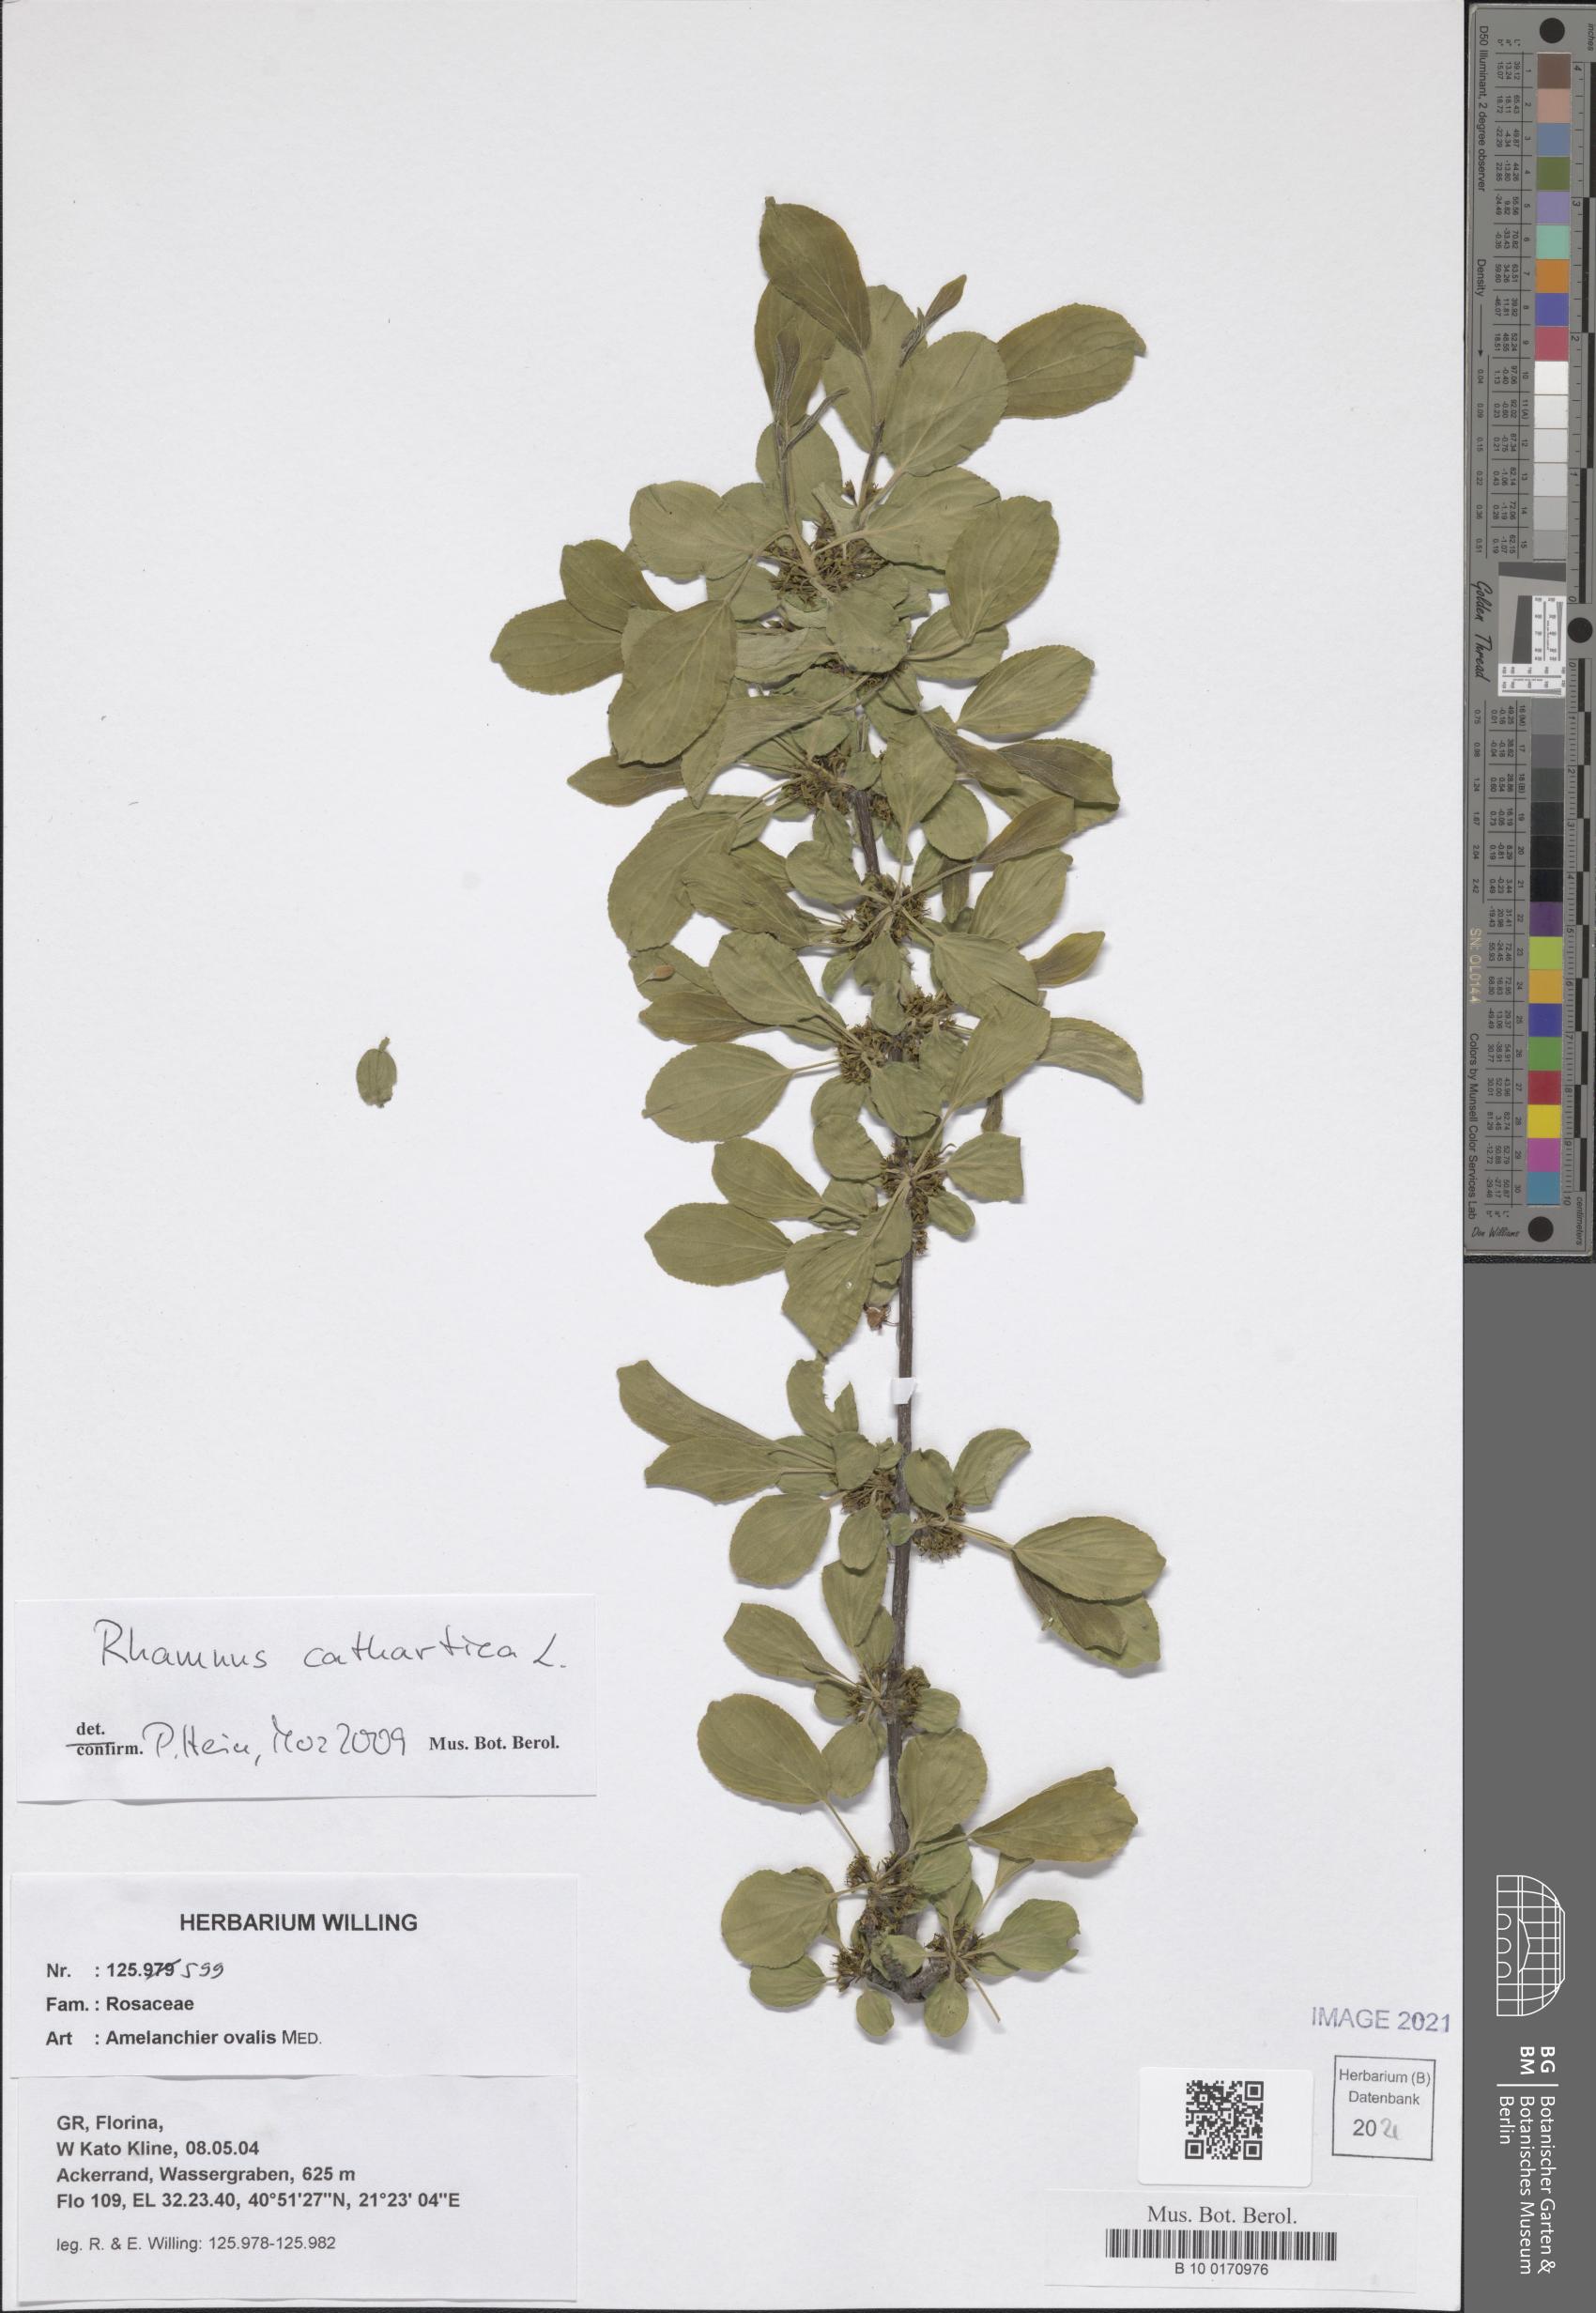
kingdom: Plantae
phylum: Tracheophyta
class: Magnoliopsida
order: Rosales
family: Rhamnaceae
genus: Rhamnus
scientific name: Rhamnus cathartica
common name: Common buckthorn
